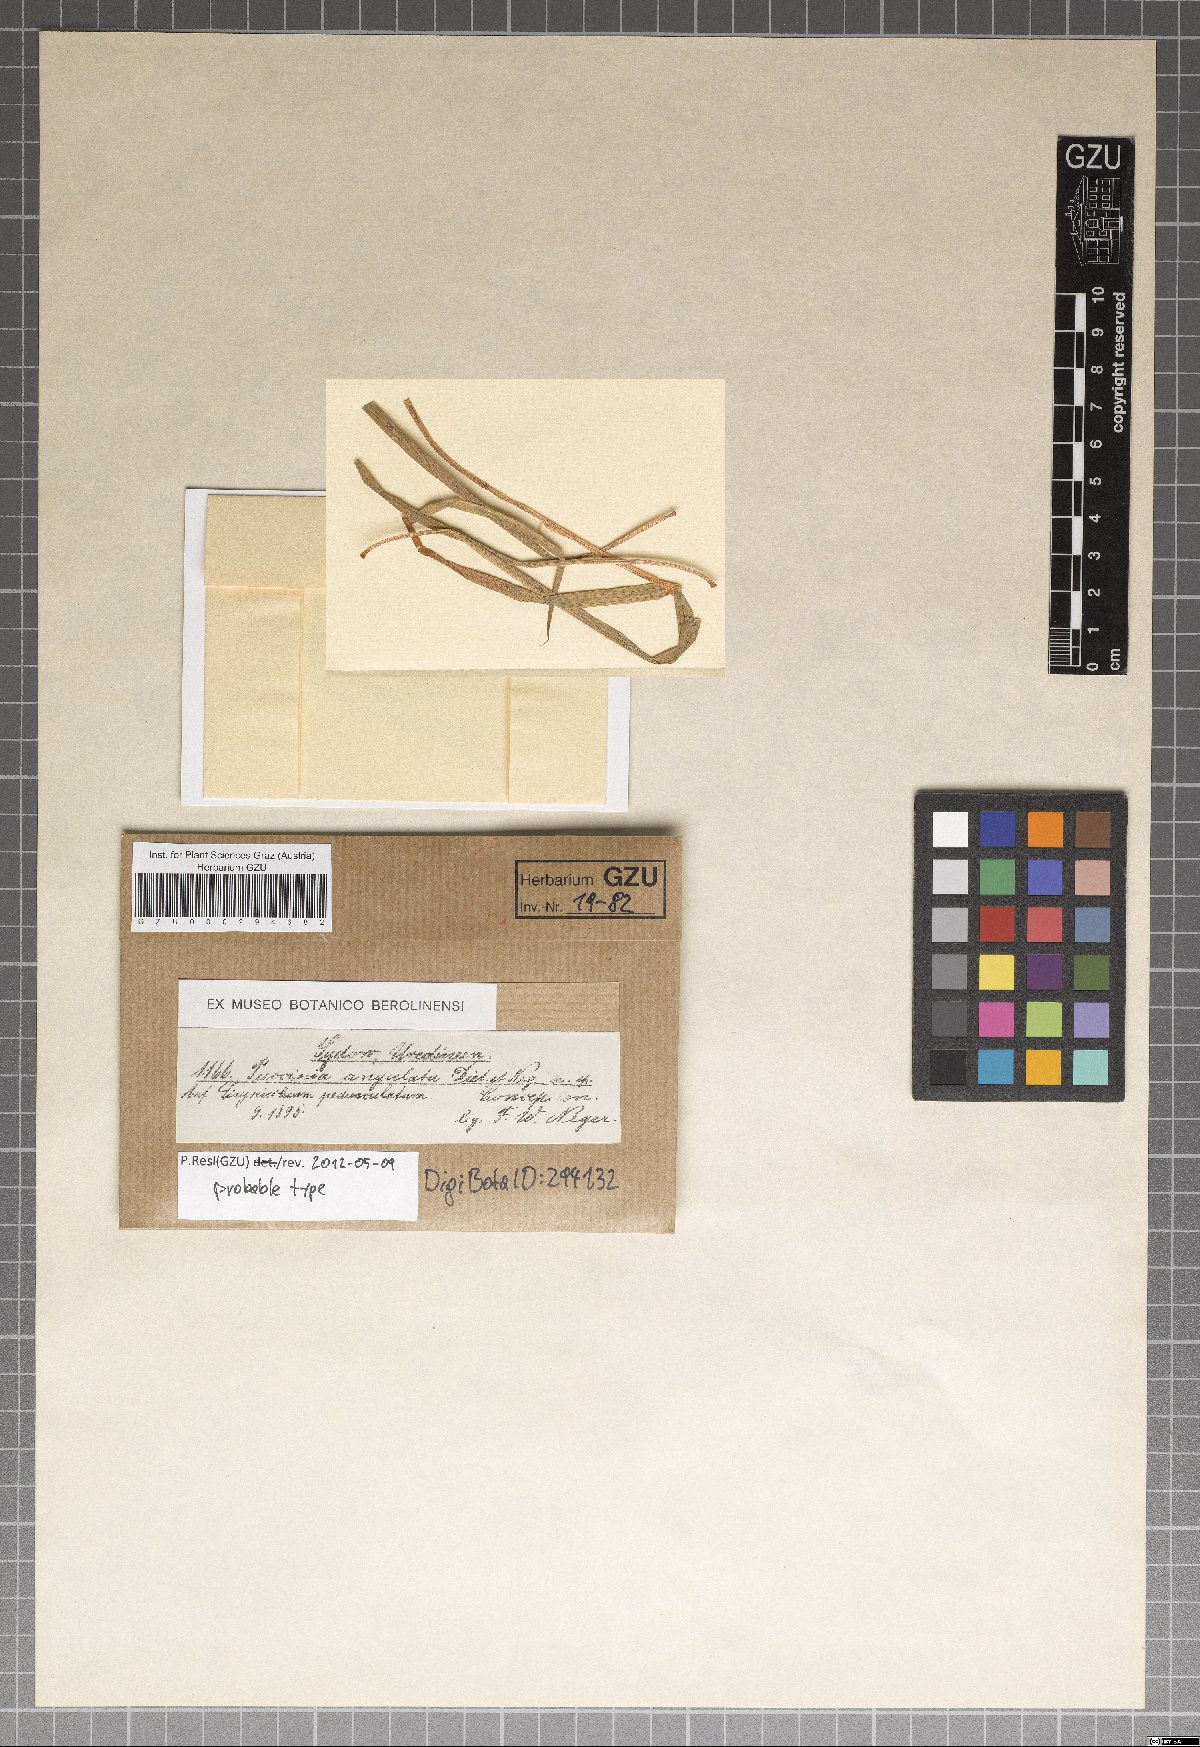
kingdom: Fungi
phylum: Basidiomycota
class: Pucciniomycetes
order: Pucciniales
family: Pucciniaceae
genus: Puccinia
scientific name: Puccinia angulata
